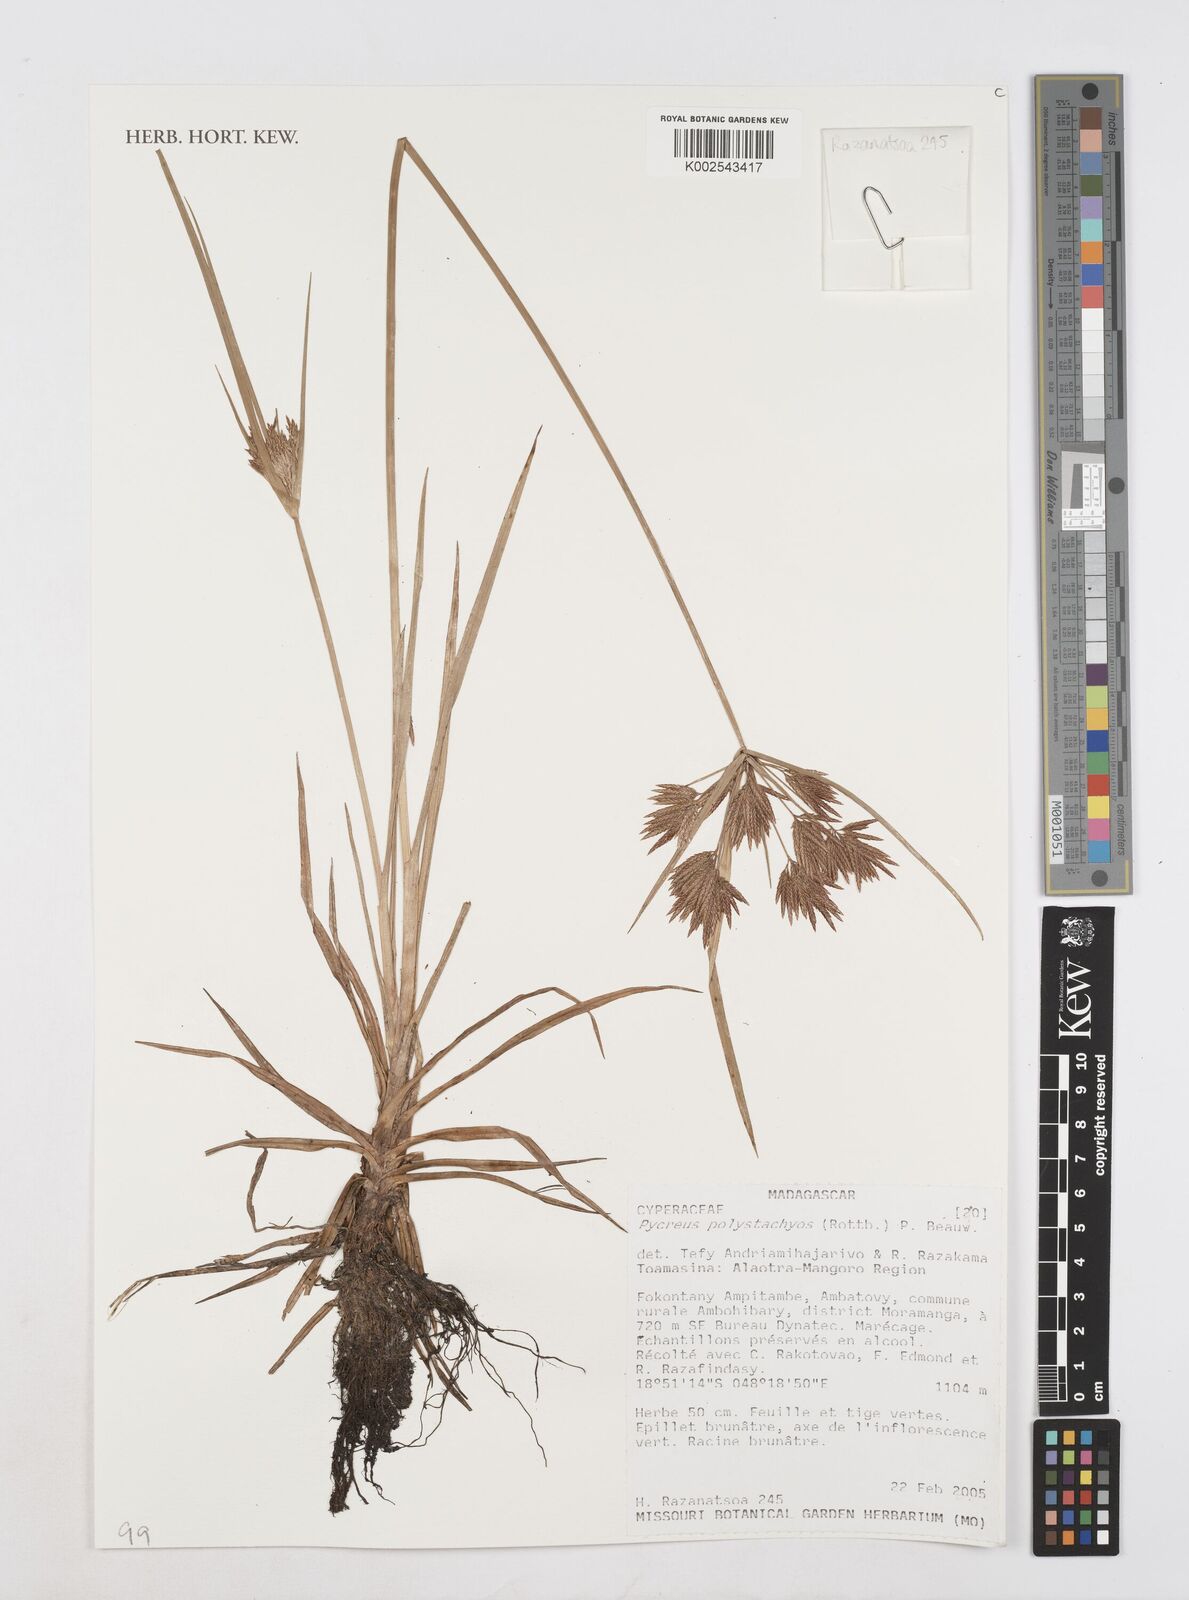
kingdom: Plantae
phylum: Tracheophyta
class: Liliopsida
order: Poales
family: Cyperaceae
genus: Cyperus
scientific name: Cyperus polystachyos
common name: Bunchy flat sedge
